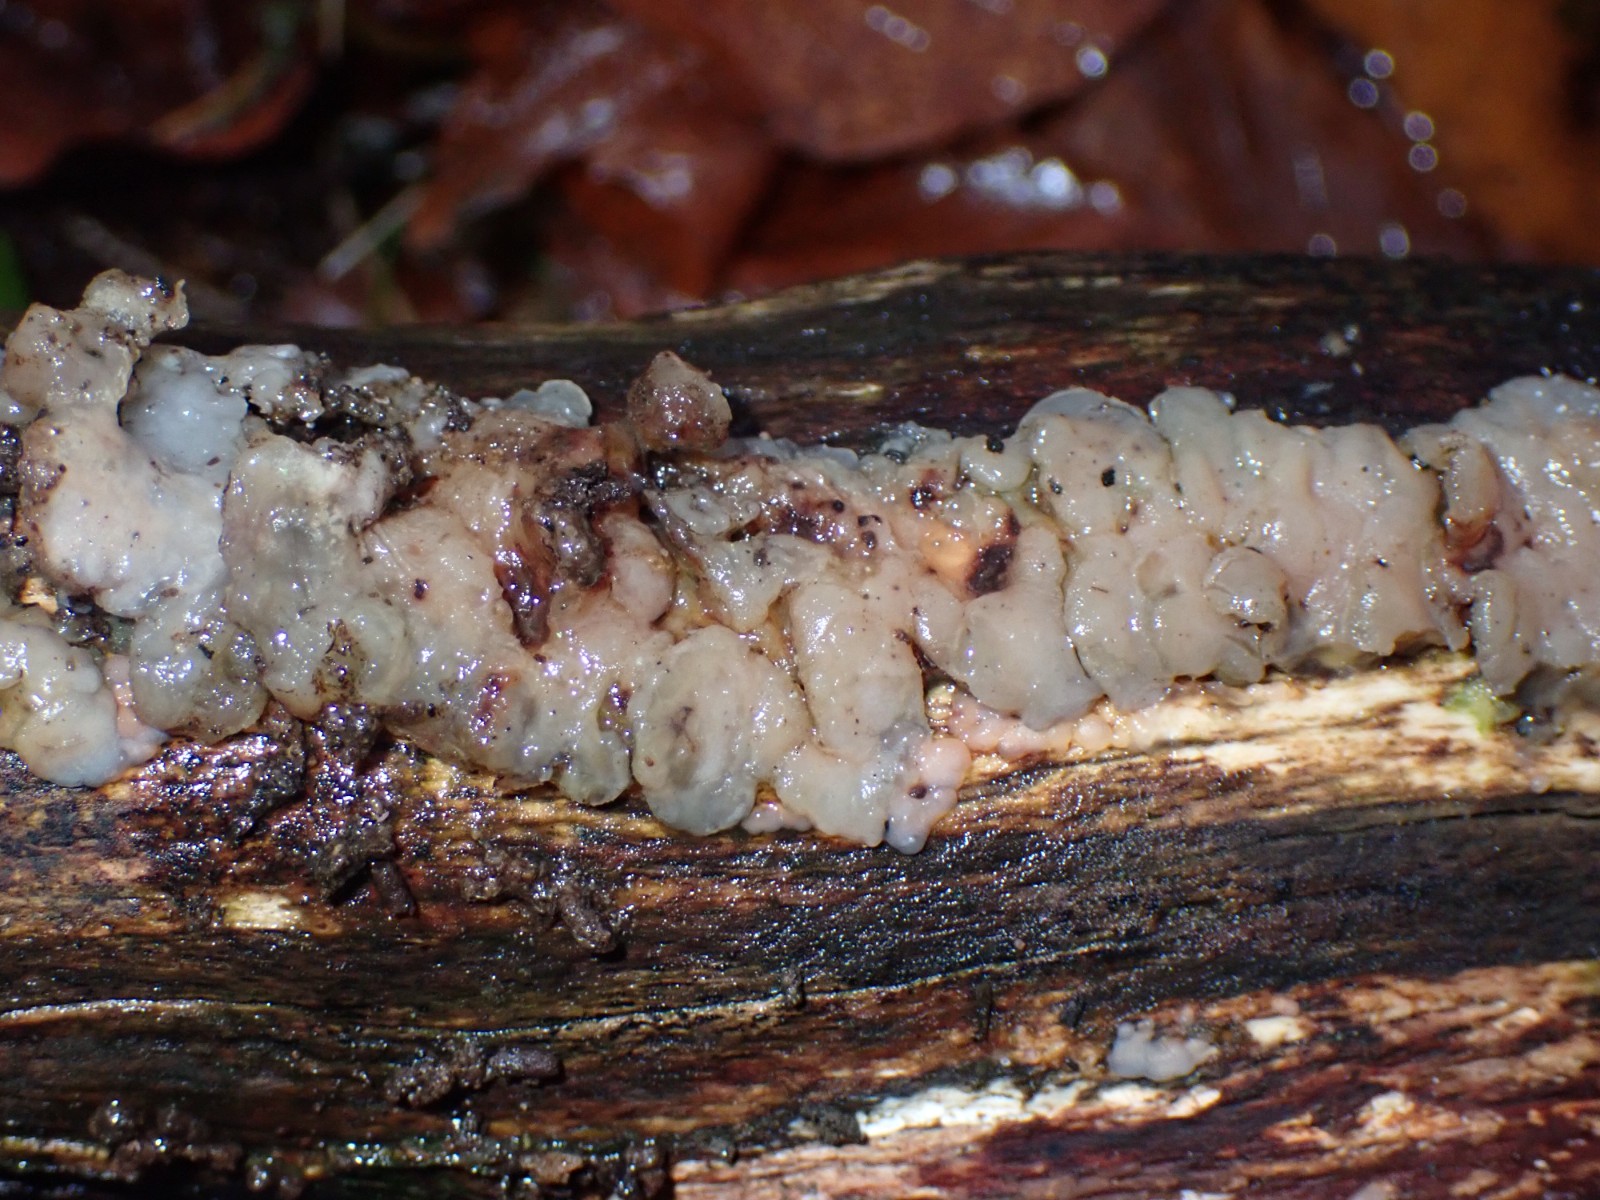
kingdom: Fungi
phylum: Basidiomycota
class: Agaricomycetes
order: Auriculariales
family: Auriculariaceae
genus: Exidia
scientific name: Exidia thuretiana
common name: hvidlig bævretop
